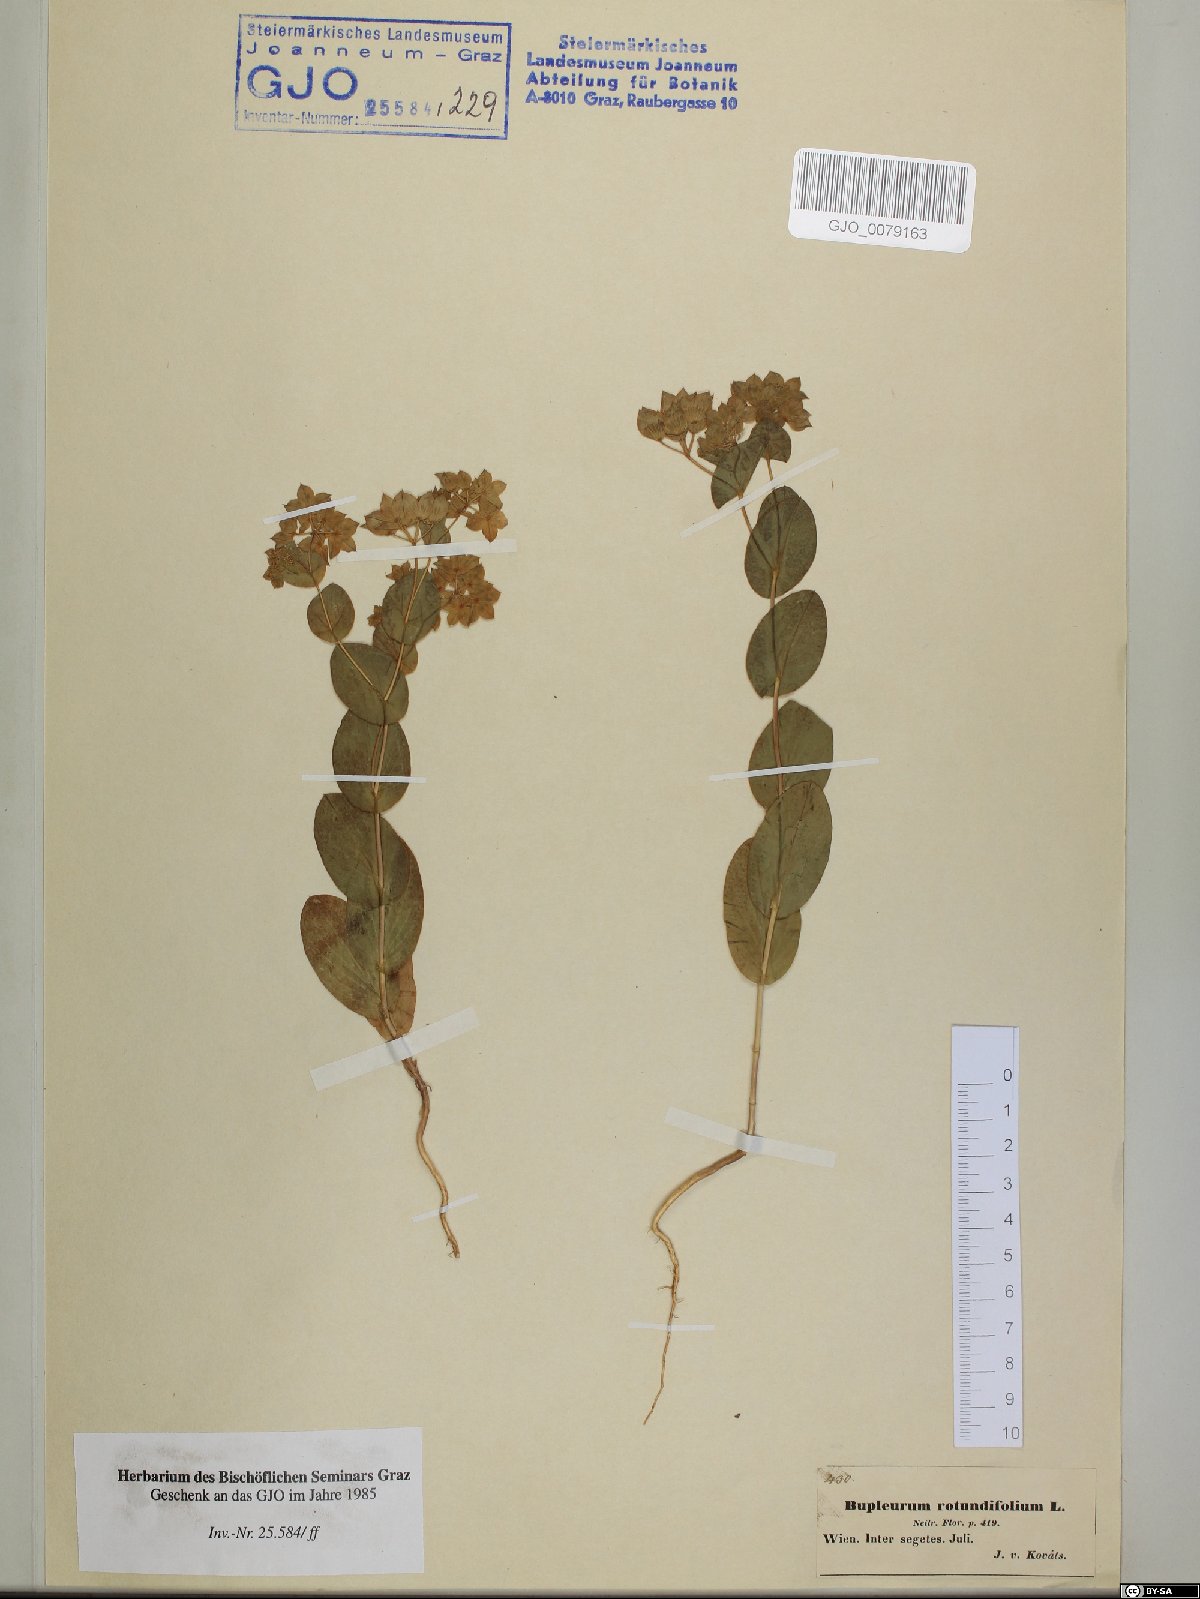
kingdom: Plantae
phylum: Tracheophyta
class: Magnoliopsida
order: Apiales
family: Apiaceae
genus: Bupleurum
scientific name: Bupleurum rotundifolium
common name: Thorow-wax
